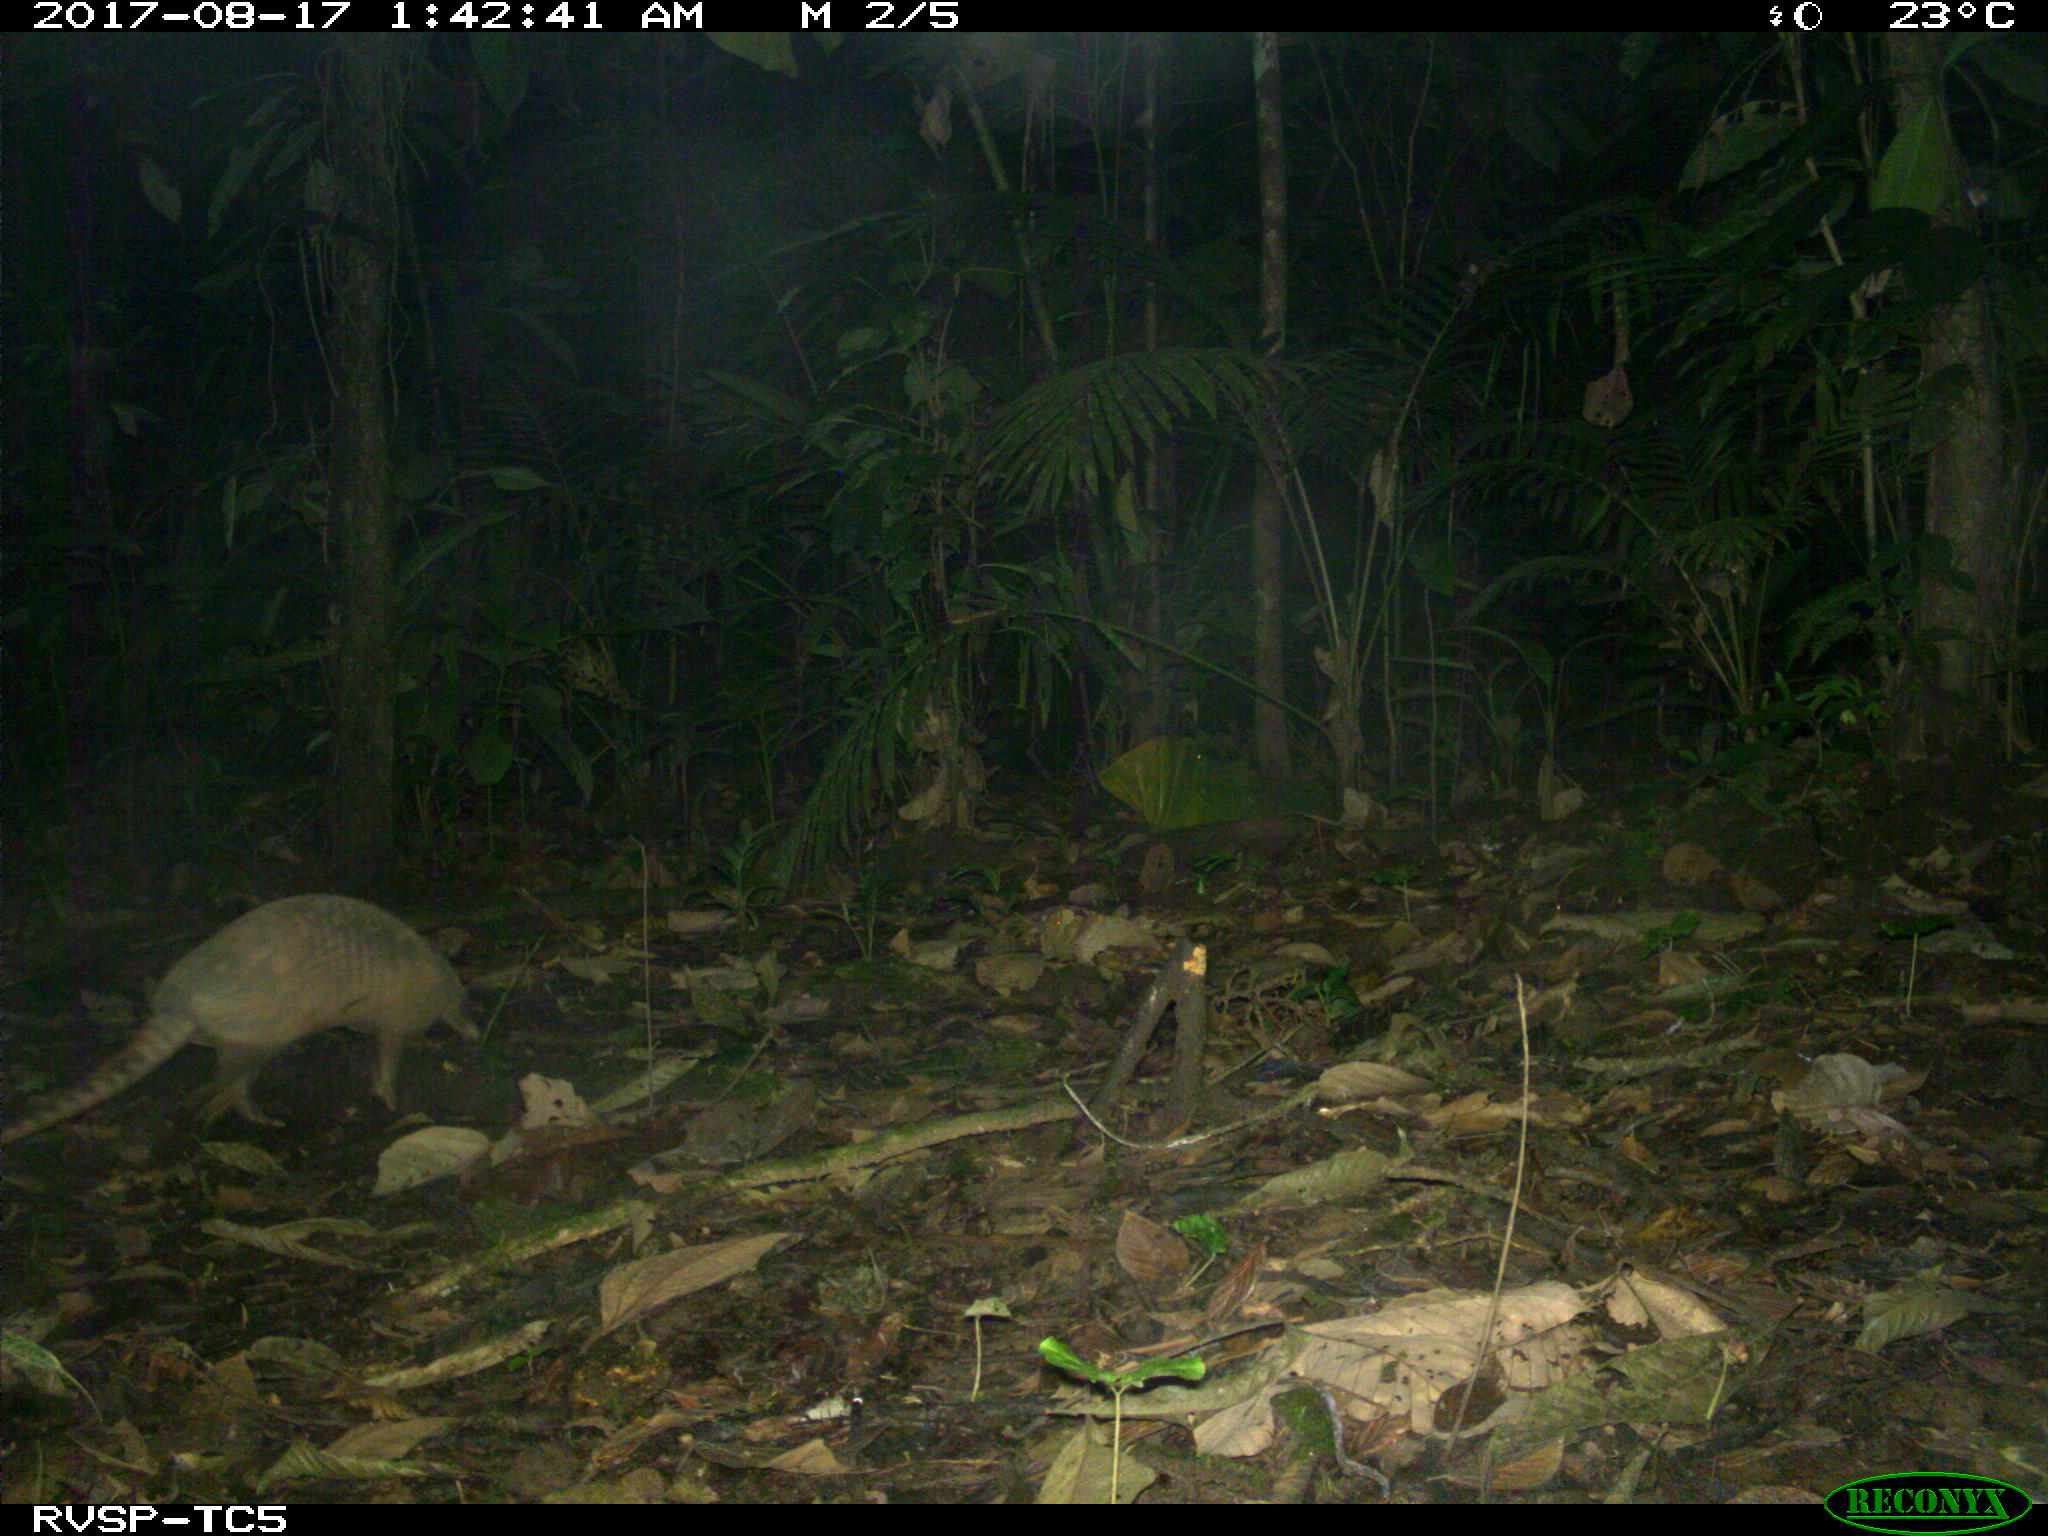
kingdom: Animalia
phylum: Chordata
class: Mammalia
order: Cingulata
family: Dasypodidae
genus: Dasypus
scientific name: Dasypus novemcinctus
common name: Nine-banded armadillo
